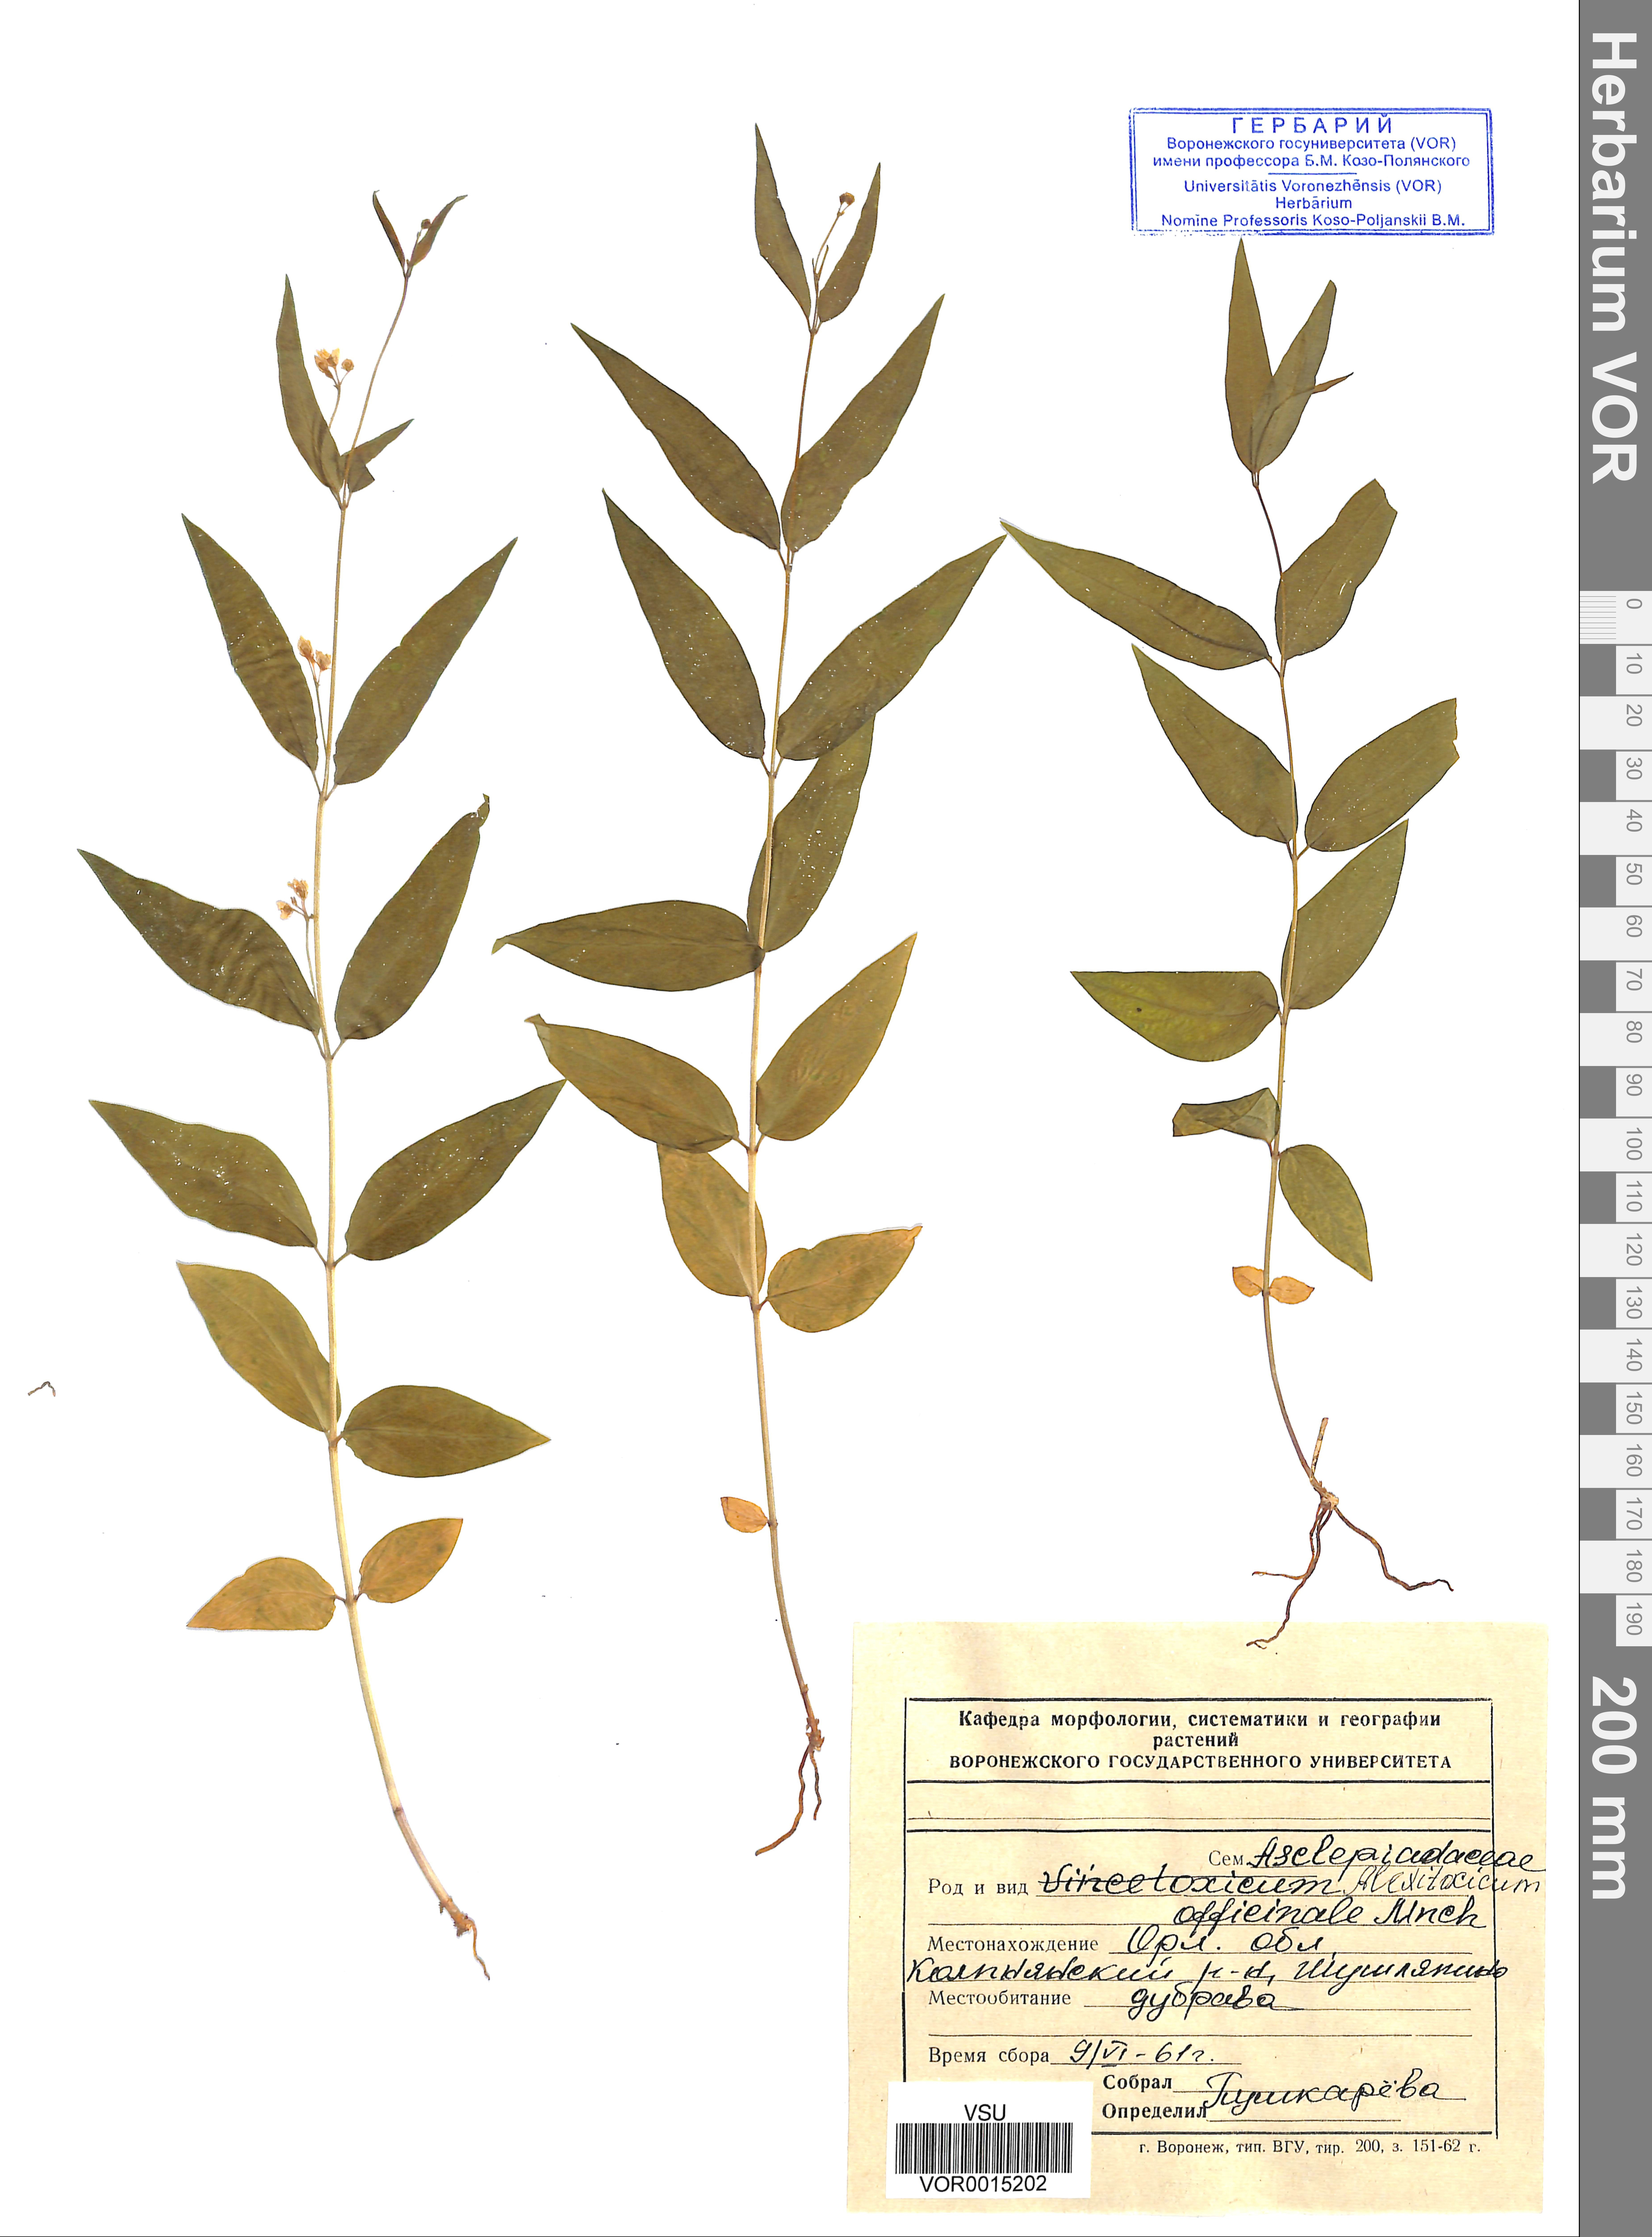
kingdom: Plantae
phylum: Tracheophyta
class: Magnoliopsida
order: Gentianales
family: Apocynaceae
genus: Vincetoxicum
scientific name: Vincetoxicum hirundinaria
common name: White swallowwort
